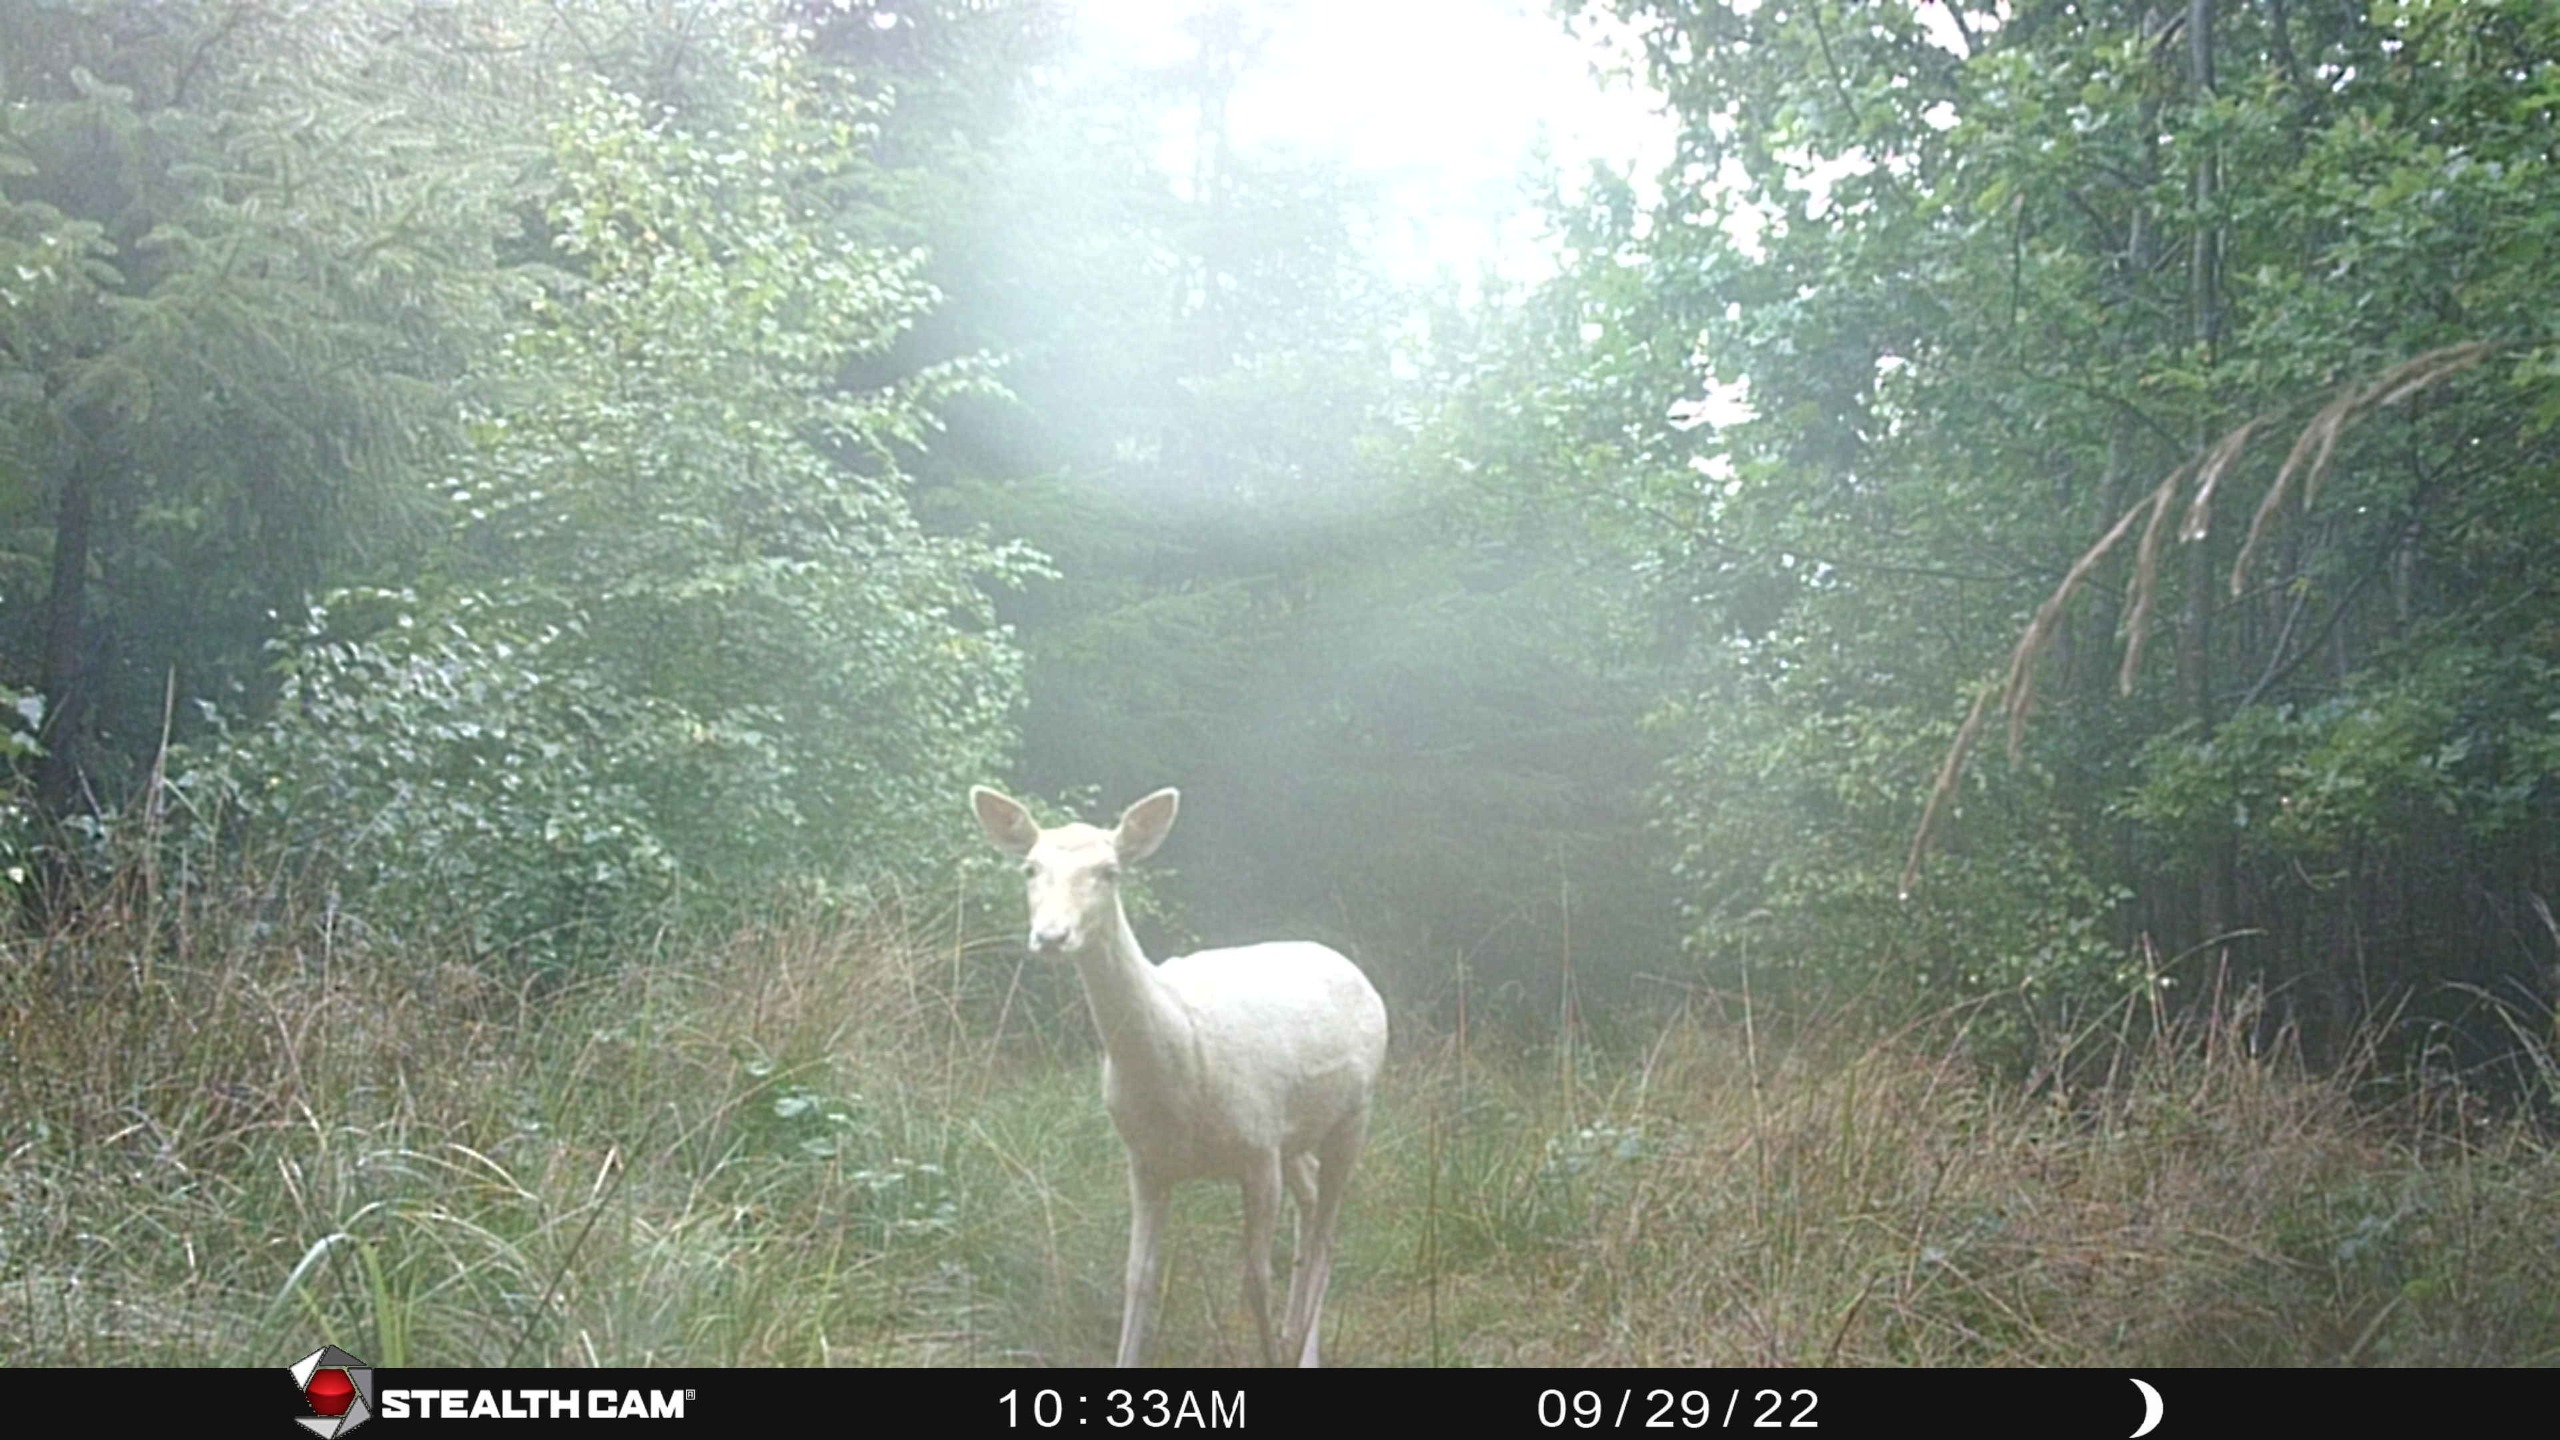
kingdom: Animalia
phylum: Chordata
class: Mammalia
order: Artiodactyla
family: Cervidae
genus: Dama
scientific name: Dama dama
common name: Dådyr
